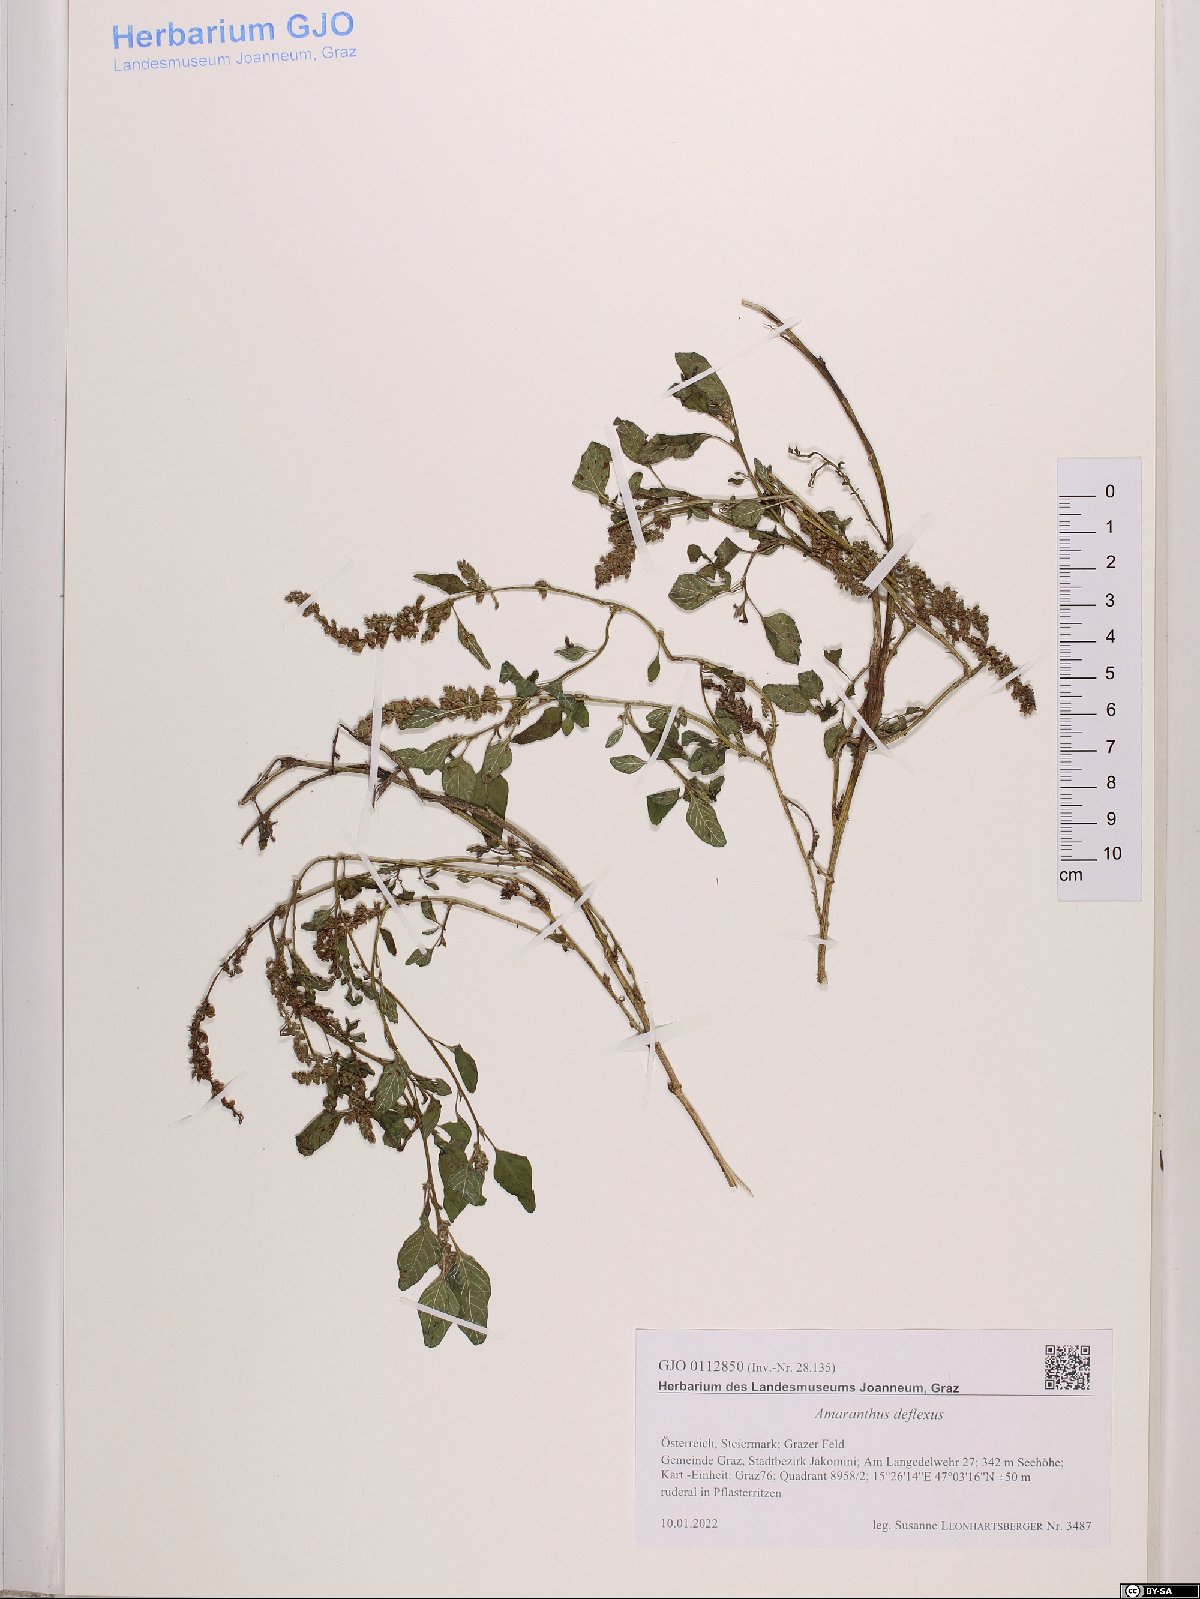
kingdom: Plantae
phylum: Tracheophyta
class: Magnoliopsida
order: Caryophyllales
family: Amaranthaceae
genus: Amaranthus
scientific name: Amaranthus deflexus
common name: Perennial pigweed
